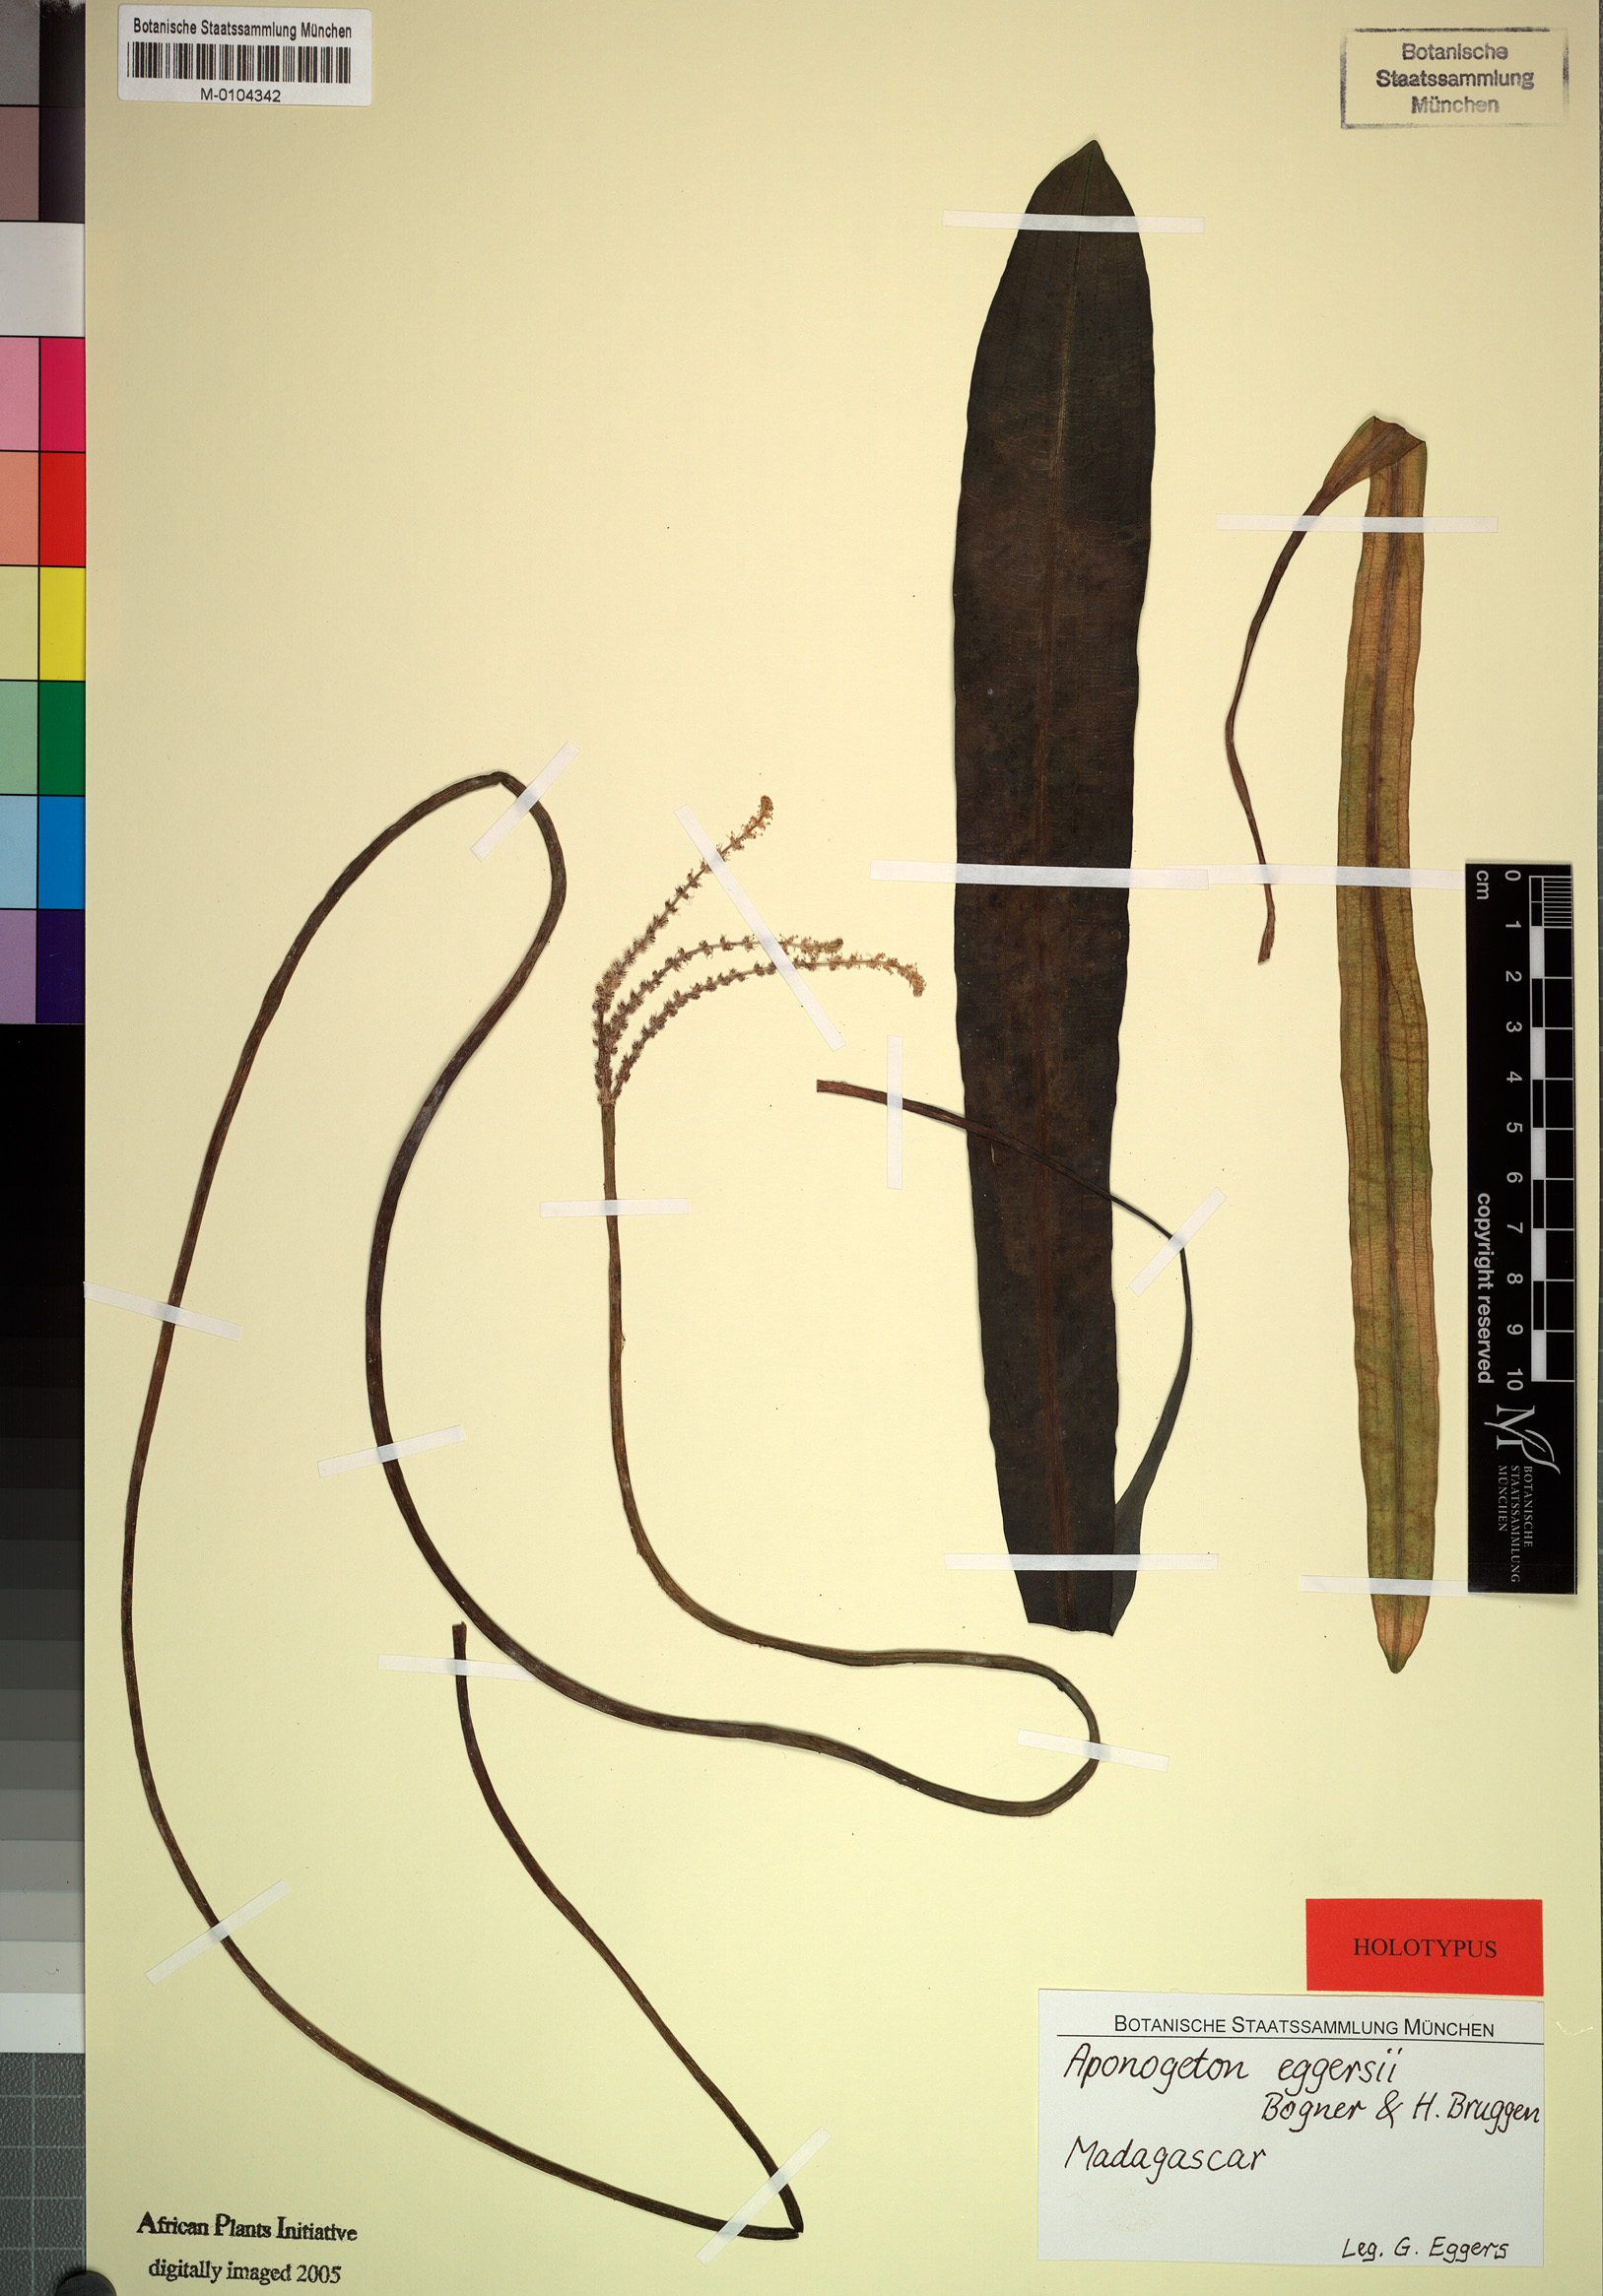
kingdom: Plantae
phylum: Tracheophyta
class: Liliopsida
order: Alismatales
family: Aponogetonaceae
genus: Aponogeton
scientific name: Aponogeton eggersii
